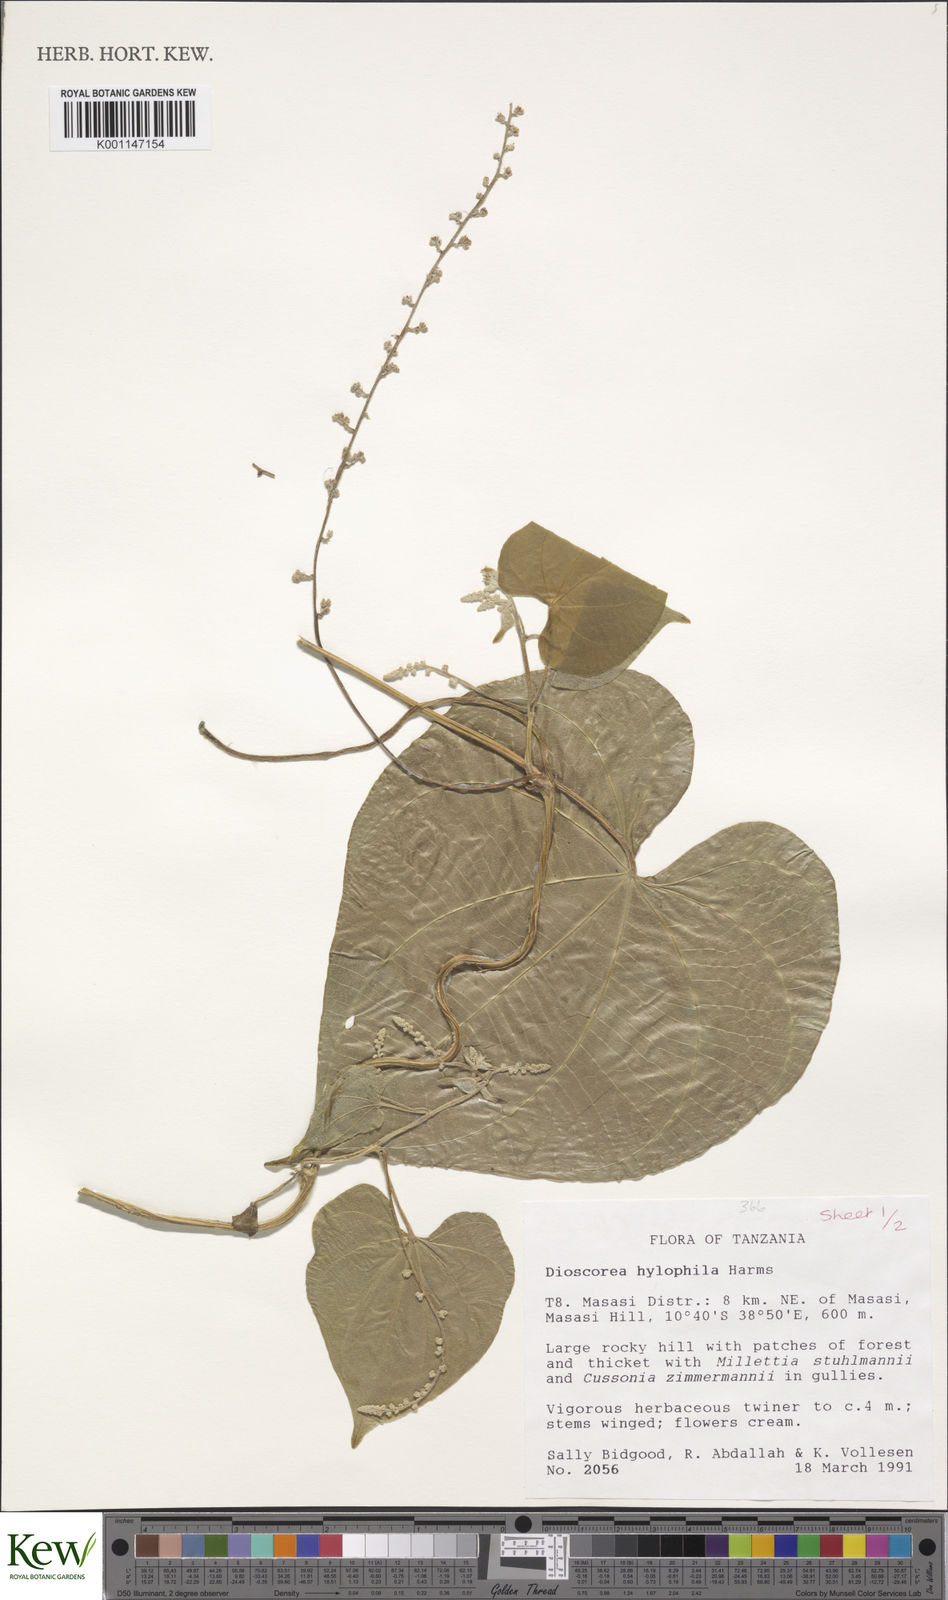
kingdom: Plantae
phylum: Tracheophyta
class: Liliopsida
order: Dioscoreales
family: Dioscoreaceae
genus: Dioscorea
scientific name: Dioscorea
